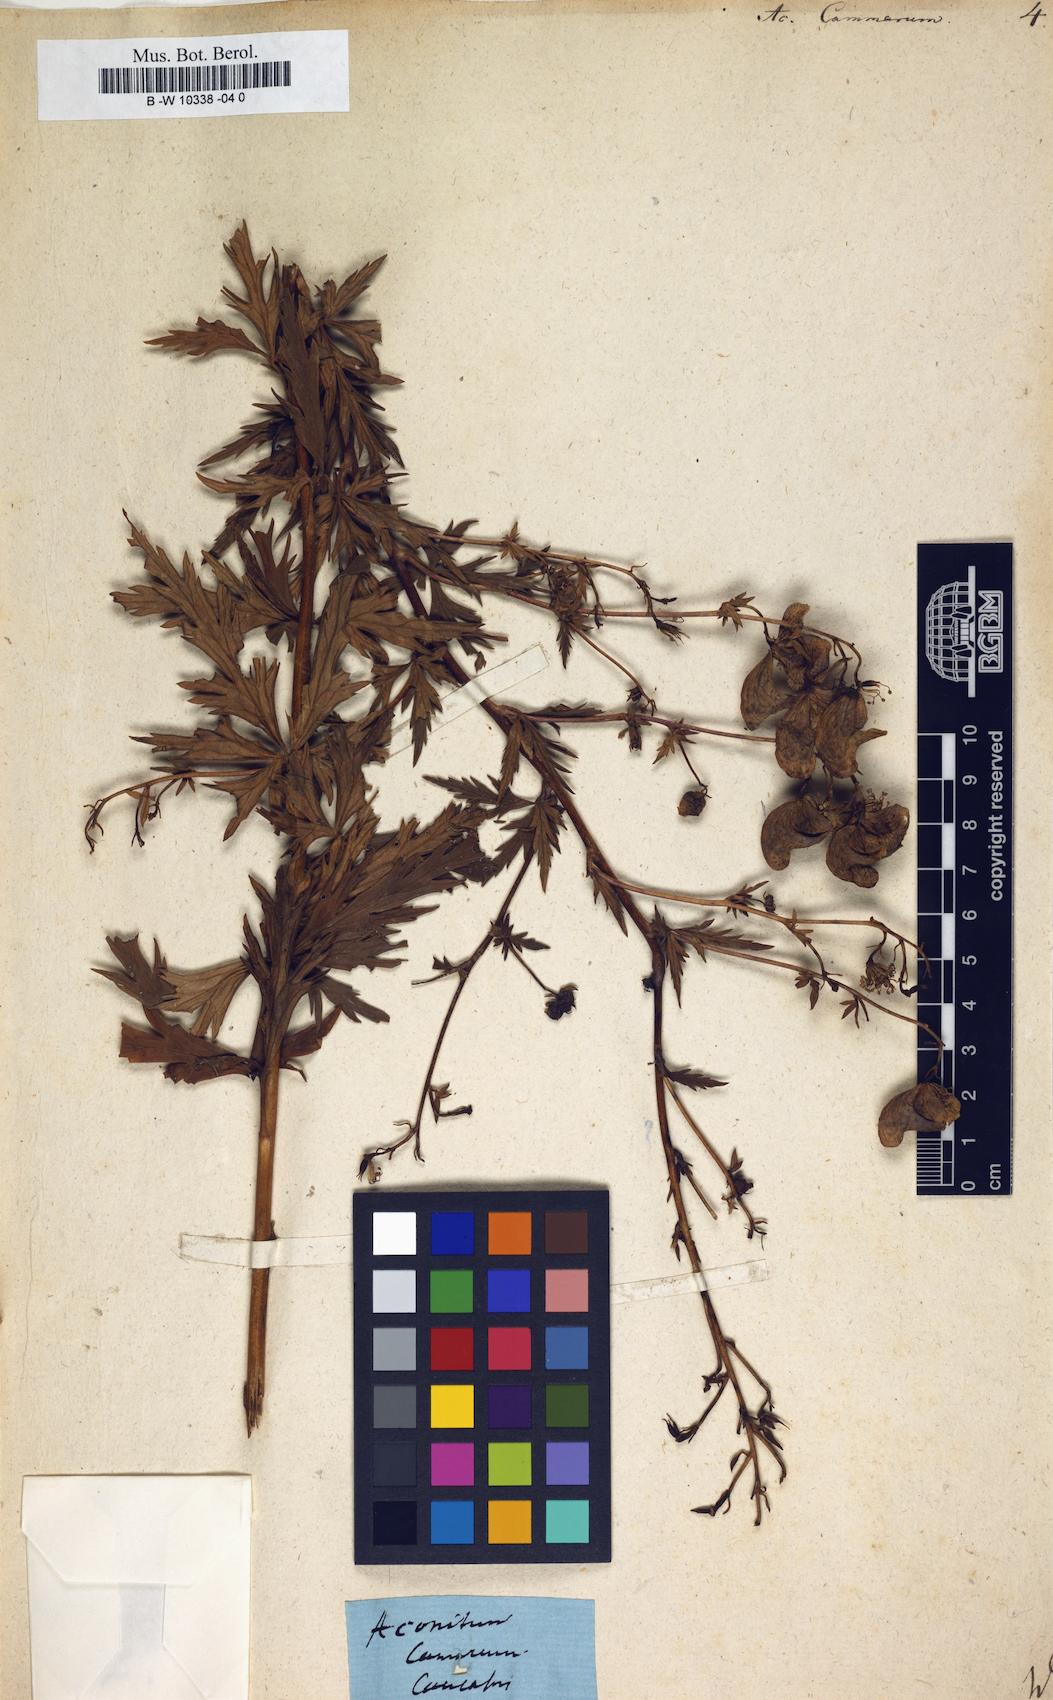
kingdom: Plantae
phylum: Tracheophyta
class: Magnoliopsida
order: Ranunculales
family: Ranunculaceae
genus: Aconitum
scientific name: Aconitum variegatum
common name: Manchurian monkshood
